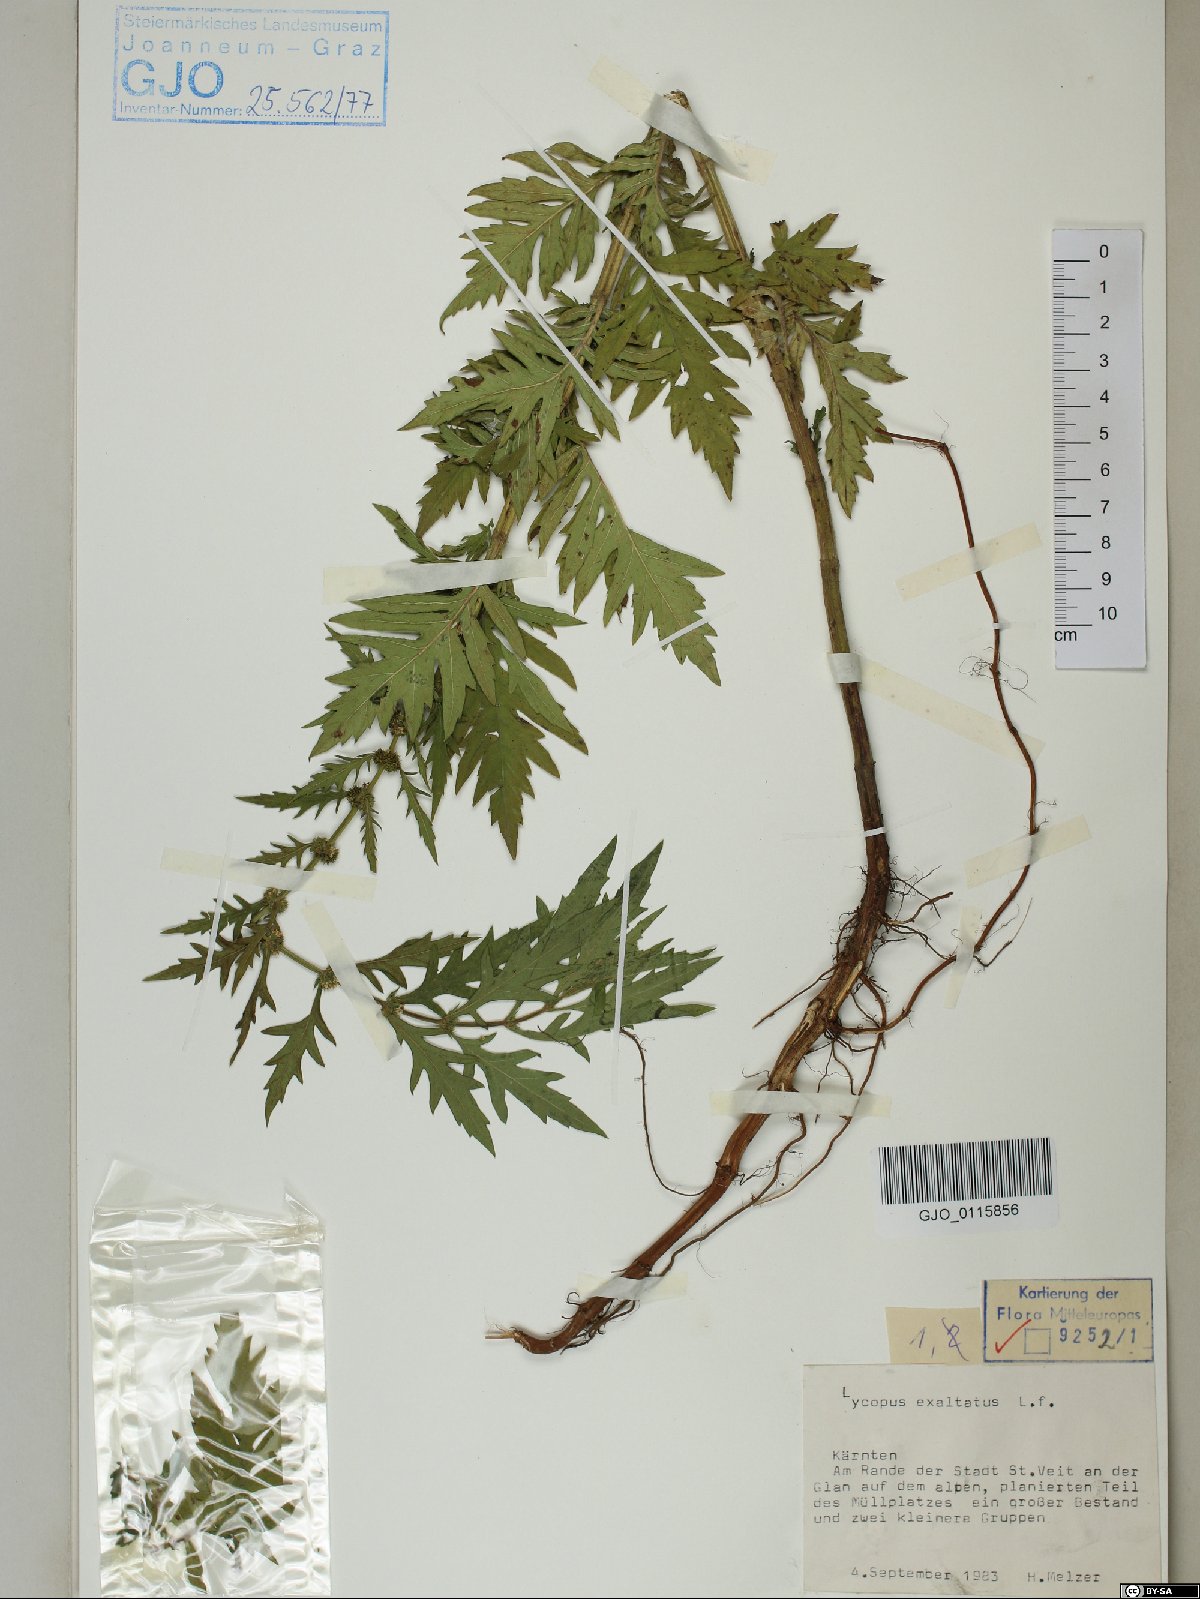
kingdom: Plantae
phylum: Tracheophyta
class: Magnoliopsida
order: Lamiales
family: Lamiaceae
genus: Lycopus
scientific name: Lycopus exaltatus
